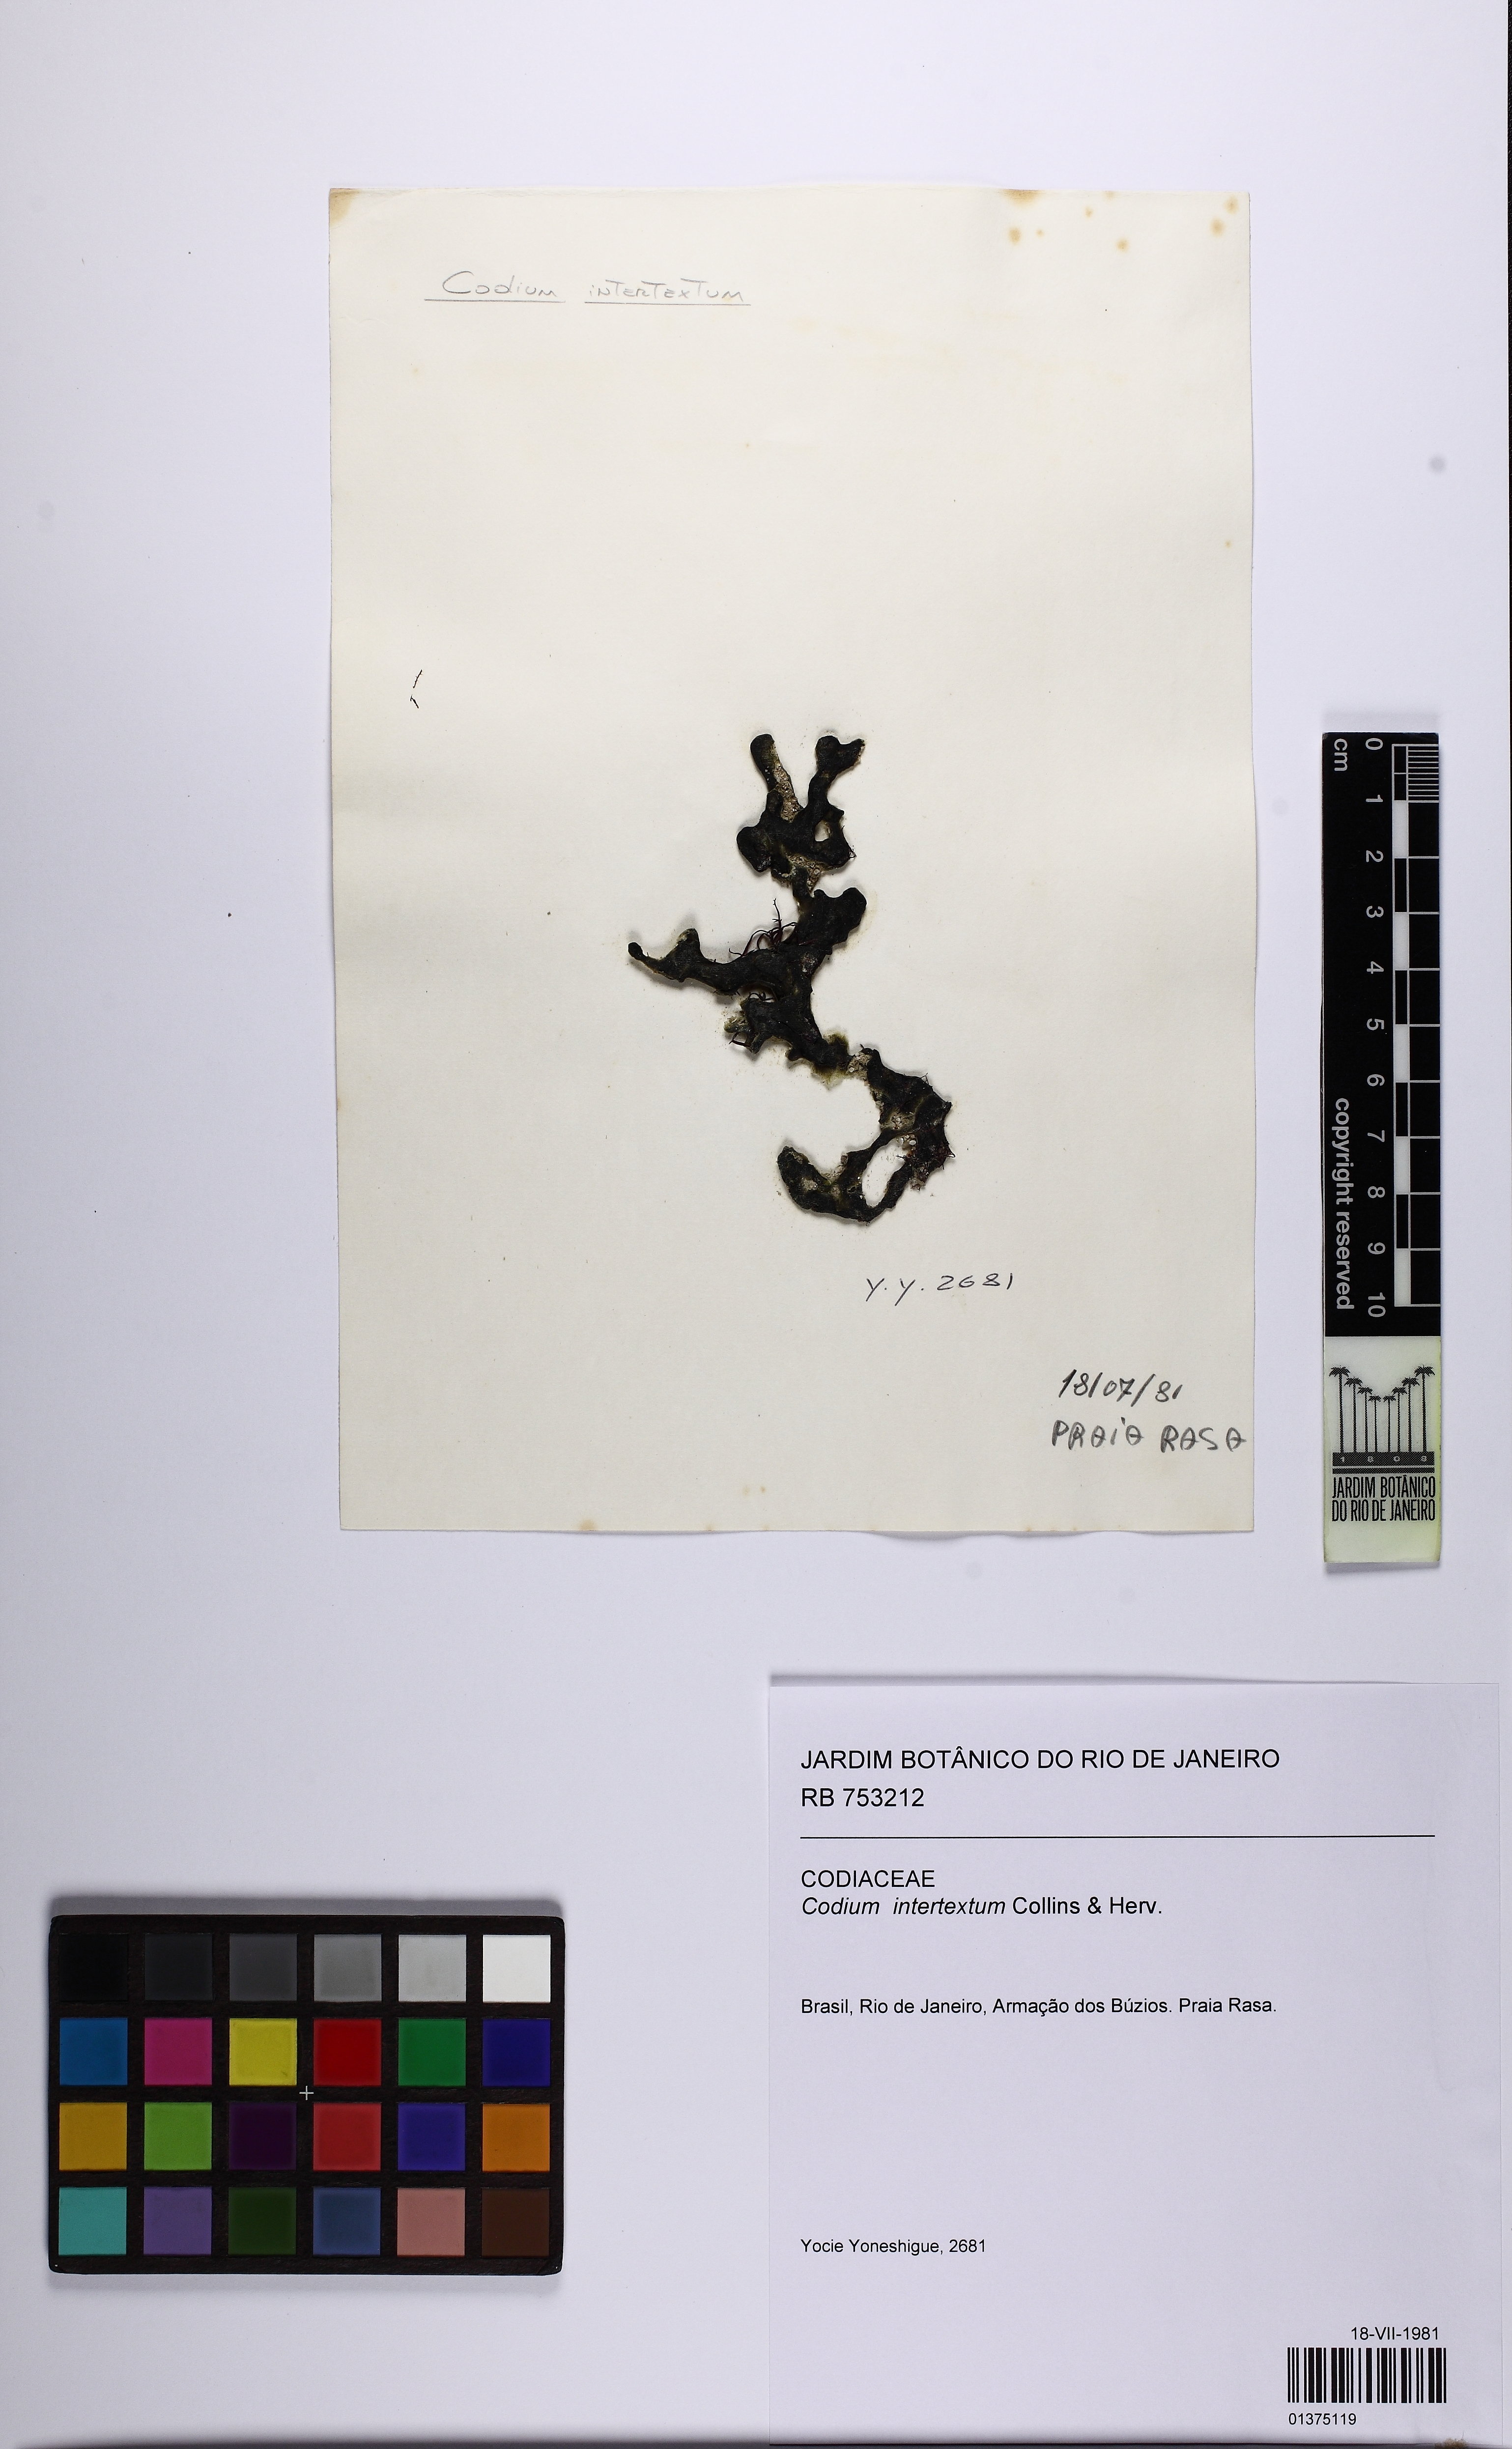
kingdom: Plantae
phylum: Chlorophyta
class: Ulvophyceae
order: Bryopsidales
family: Codiaceae
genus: Codium
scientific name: Codium intertextum
